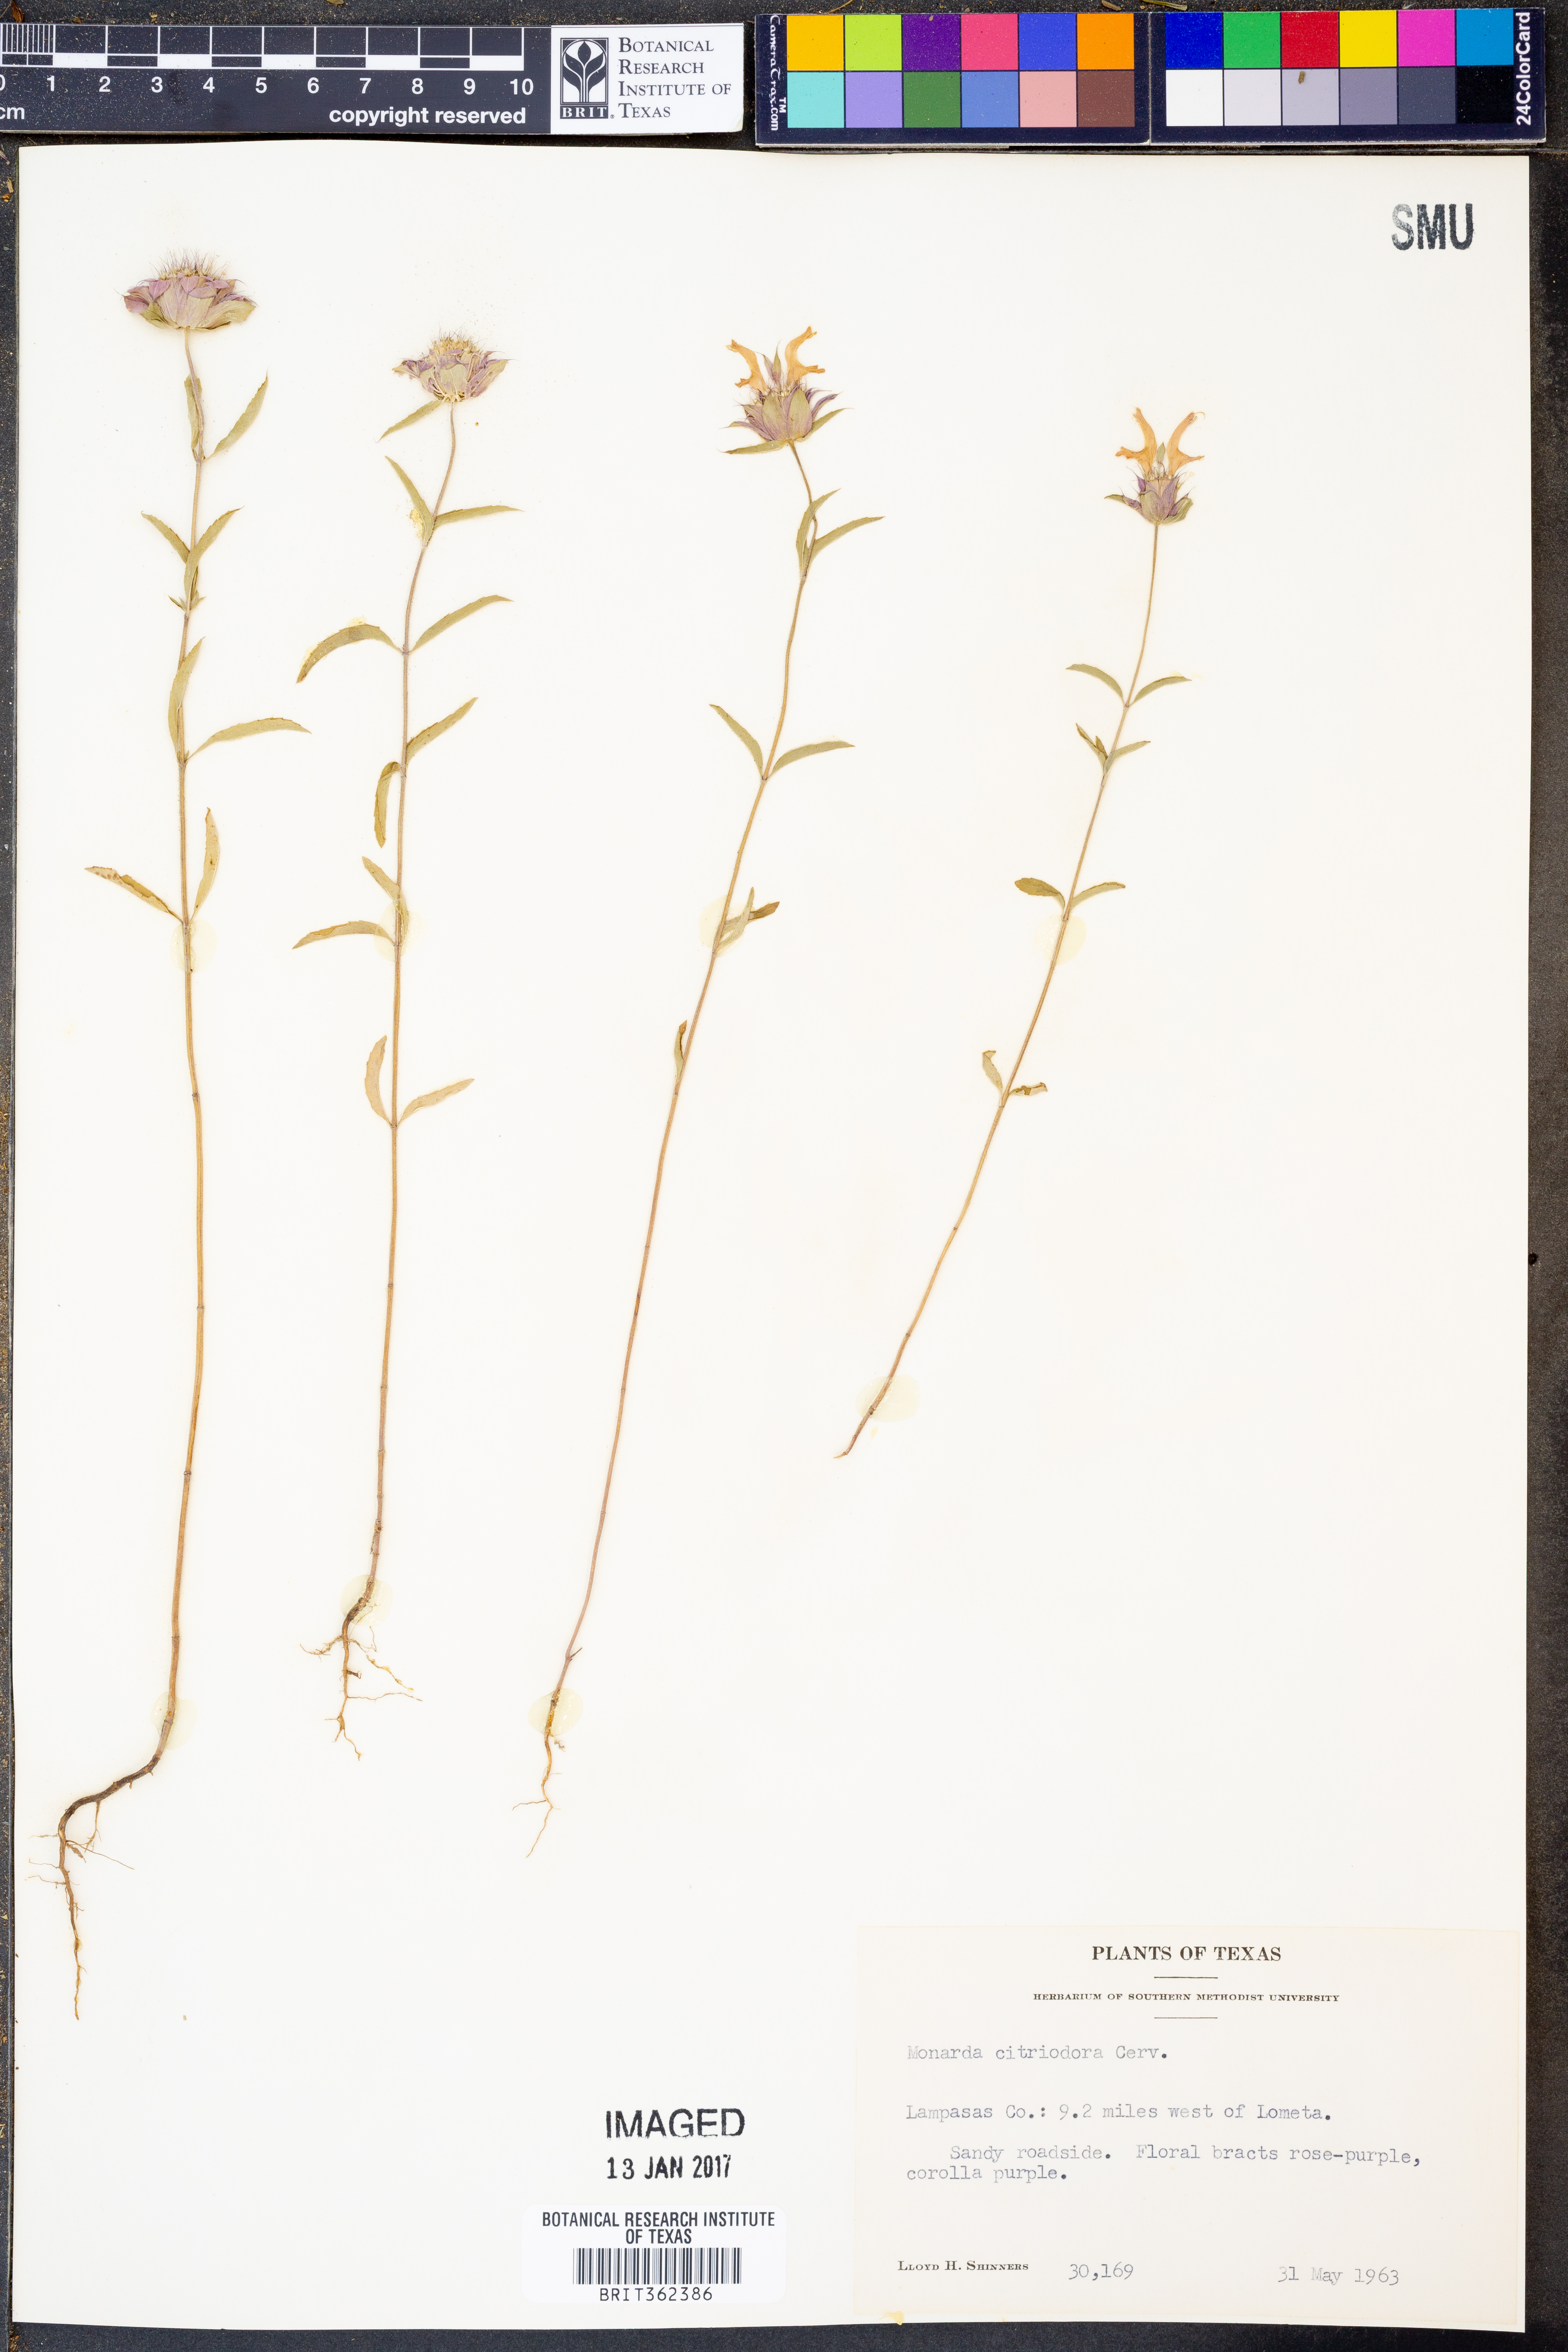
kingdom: Plantae
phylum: Tracheophyta
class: Magnoliopsida
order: Lamiales
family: Lamiaceae
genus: Monarda
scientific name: Monarda citriodora
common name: Lemon beebalm
